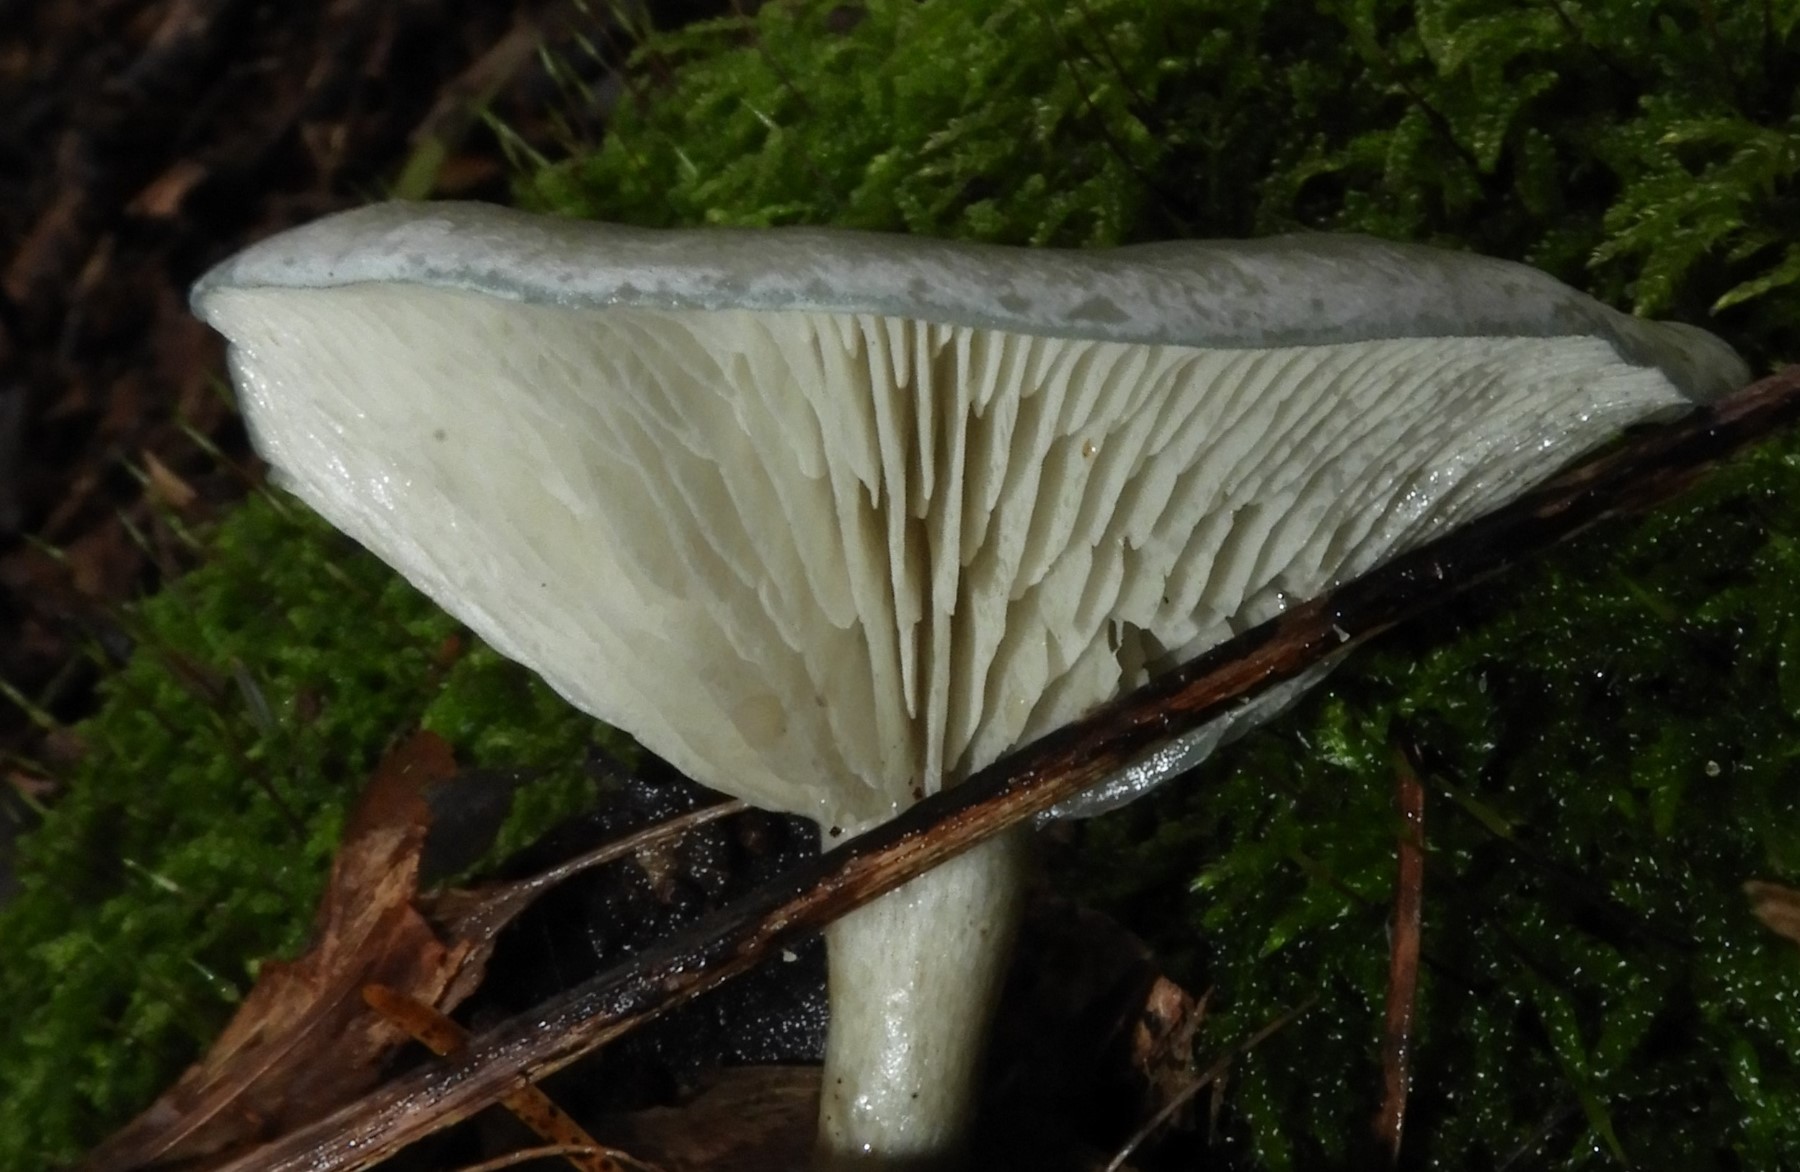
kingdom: Fungi
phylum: Basidiomycota
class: Agaricomycetes
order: Agaricales
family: Tricholomataceae
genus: Clitocybe
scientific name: Clitocybe odora
